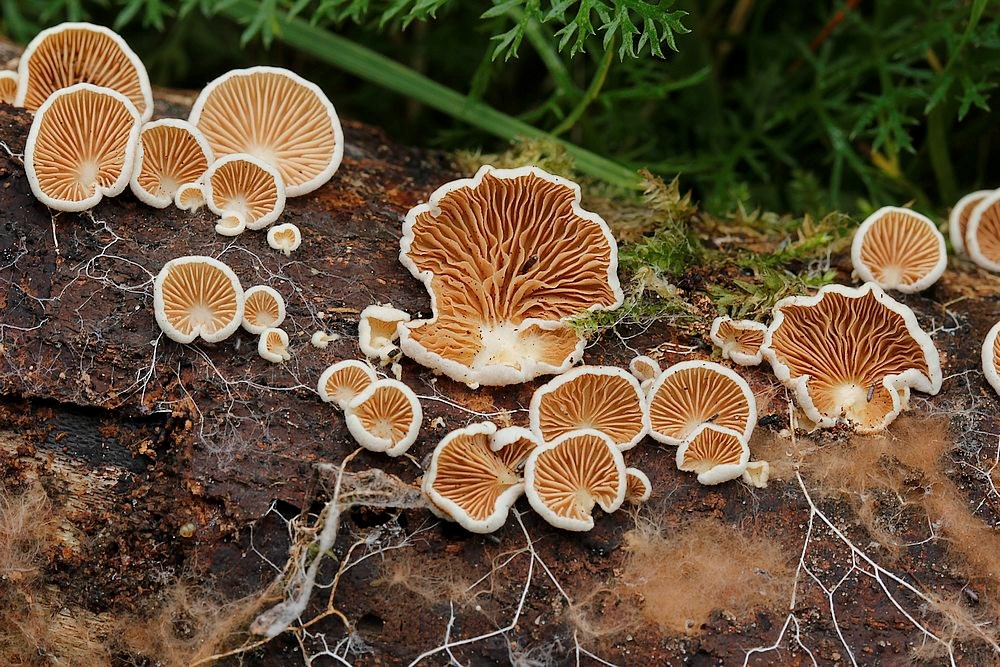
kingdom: Fungi
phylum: Basidiomycota
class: Agaricomycetes
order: Agaricales
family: Crepidotaceae
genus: Crepidotus
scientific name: Crepidotus variabilis
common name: forskelligformet muslingesvamp
